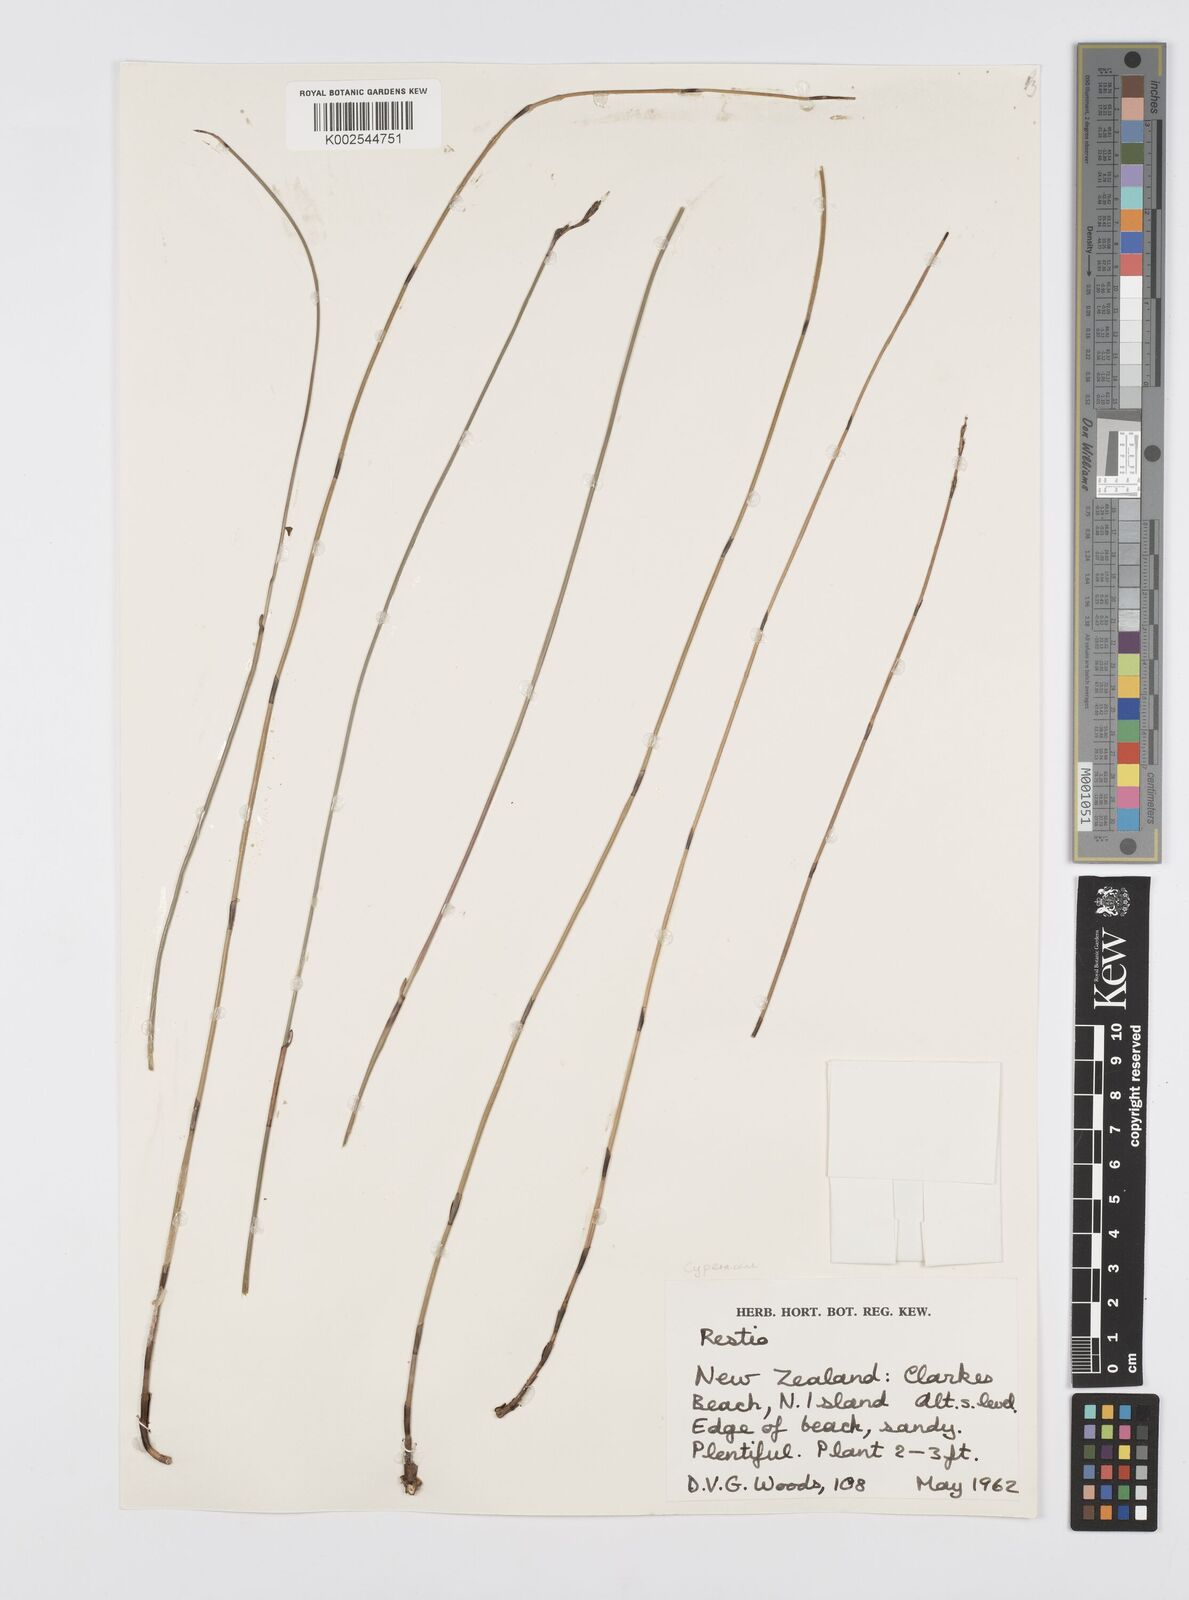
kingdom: Plantae
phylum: Tracheophyta
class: Liliopsida
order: Poales
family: Cyperaceae
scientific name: Cyperaceae
